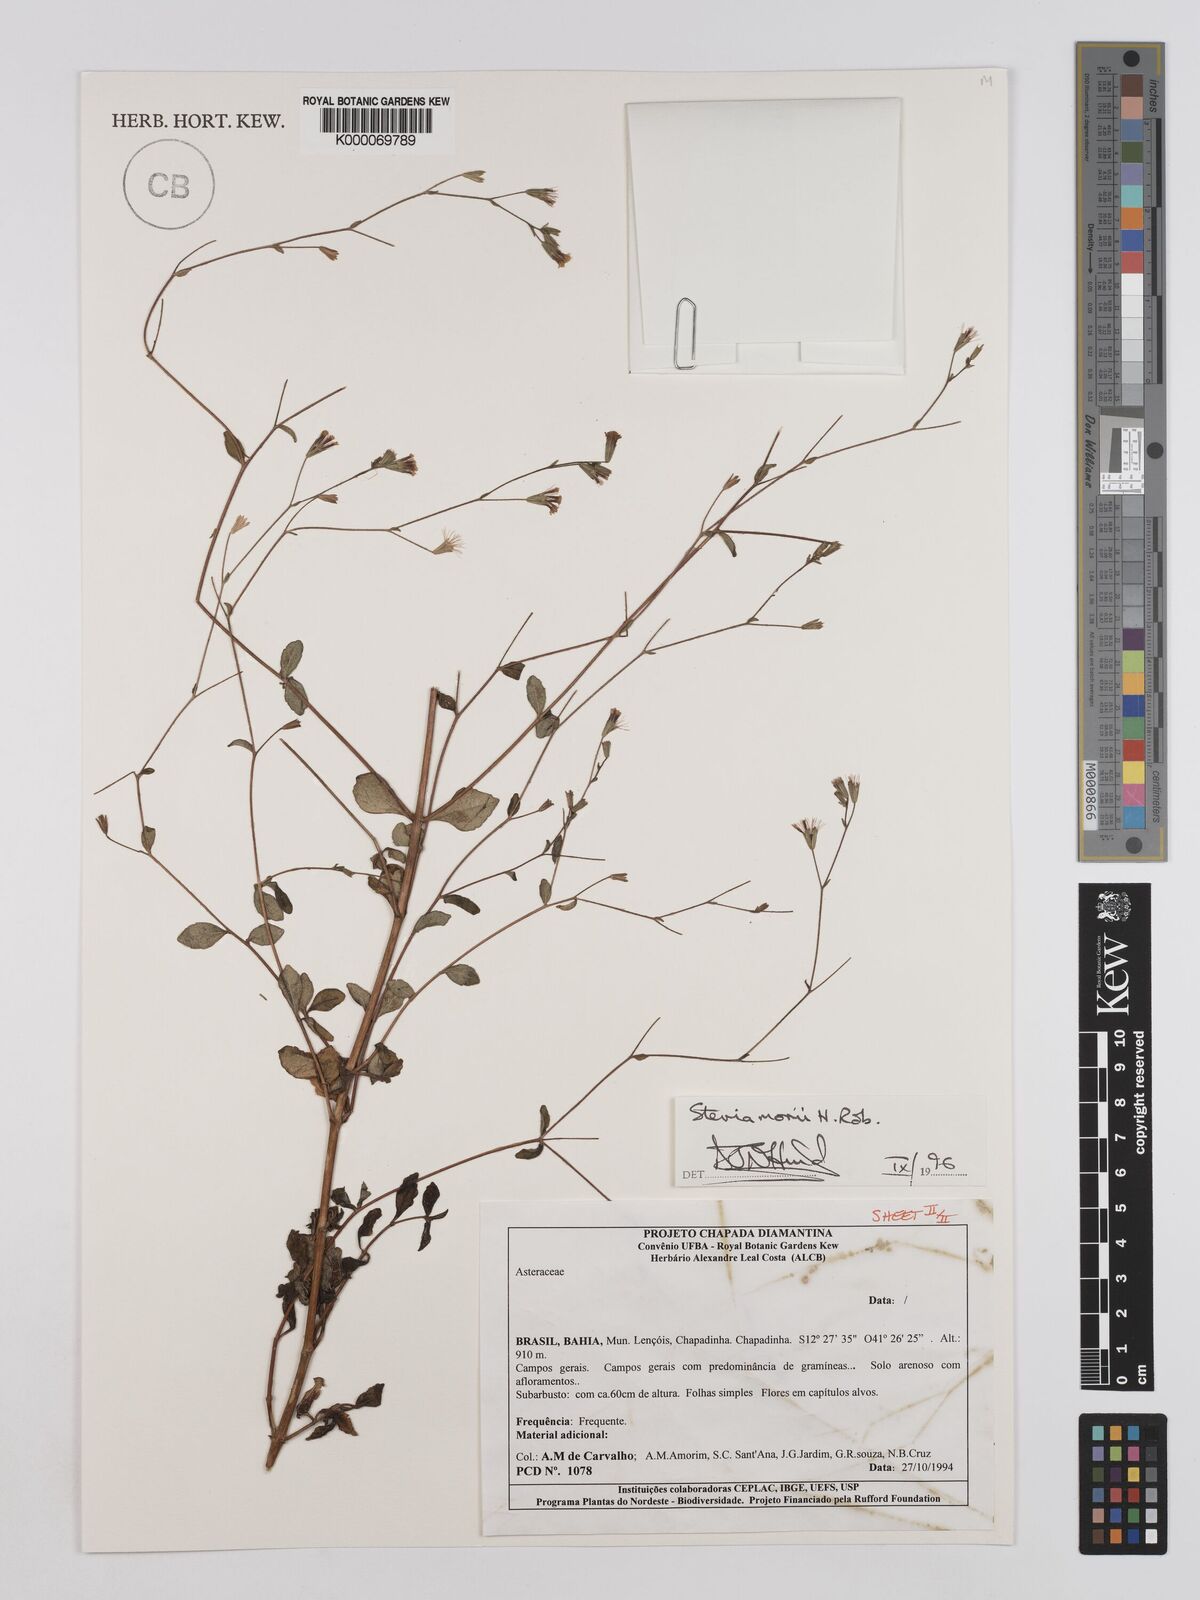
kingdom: Plantae
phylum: Tracheophyta
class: Magnoliopsida
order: Asterales
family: Asteraceae
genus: Stevia
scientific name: Stevia morii
